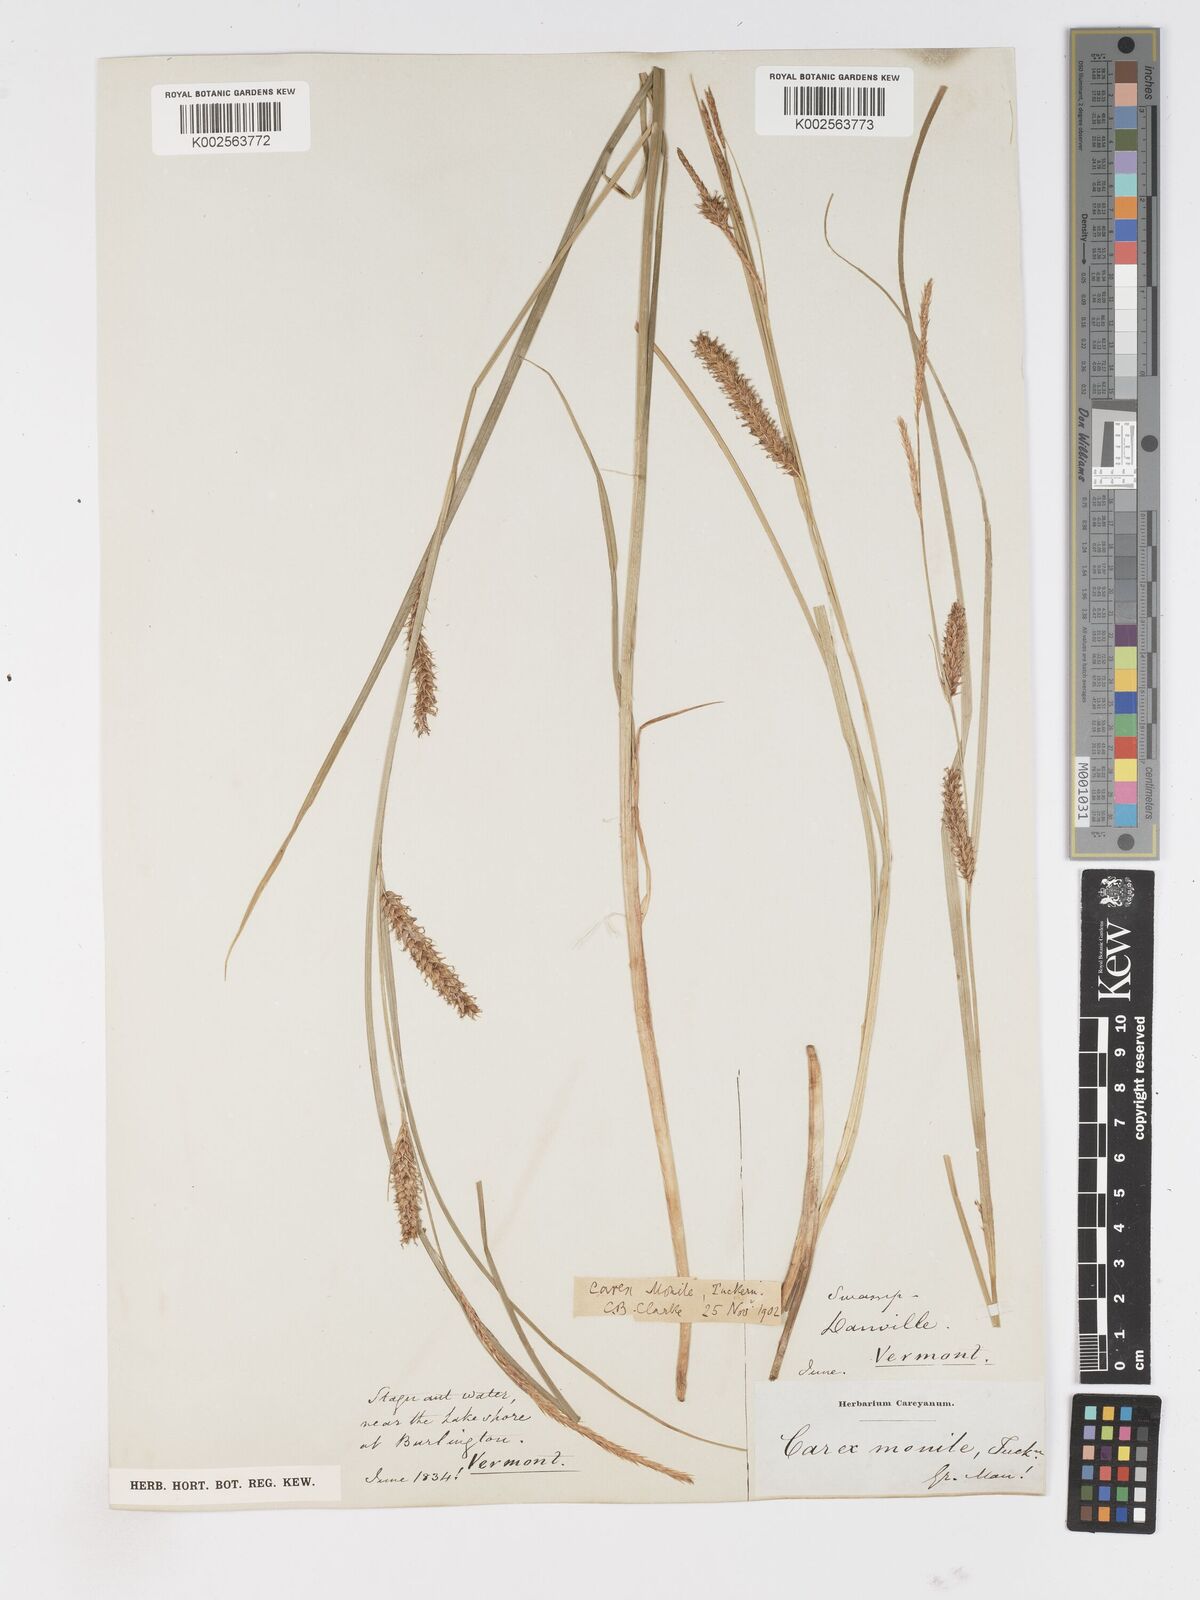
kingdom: Plantae
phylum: Tracheophyta
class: Liliopsida
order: Poales
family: Cyperaceae
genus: Carex
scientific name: Carex vesicaria
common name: Bladder-sedge
